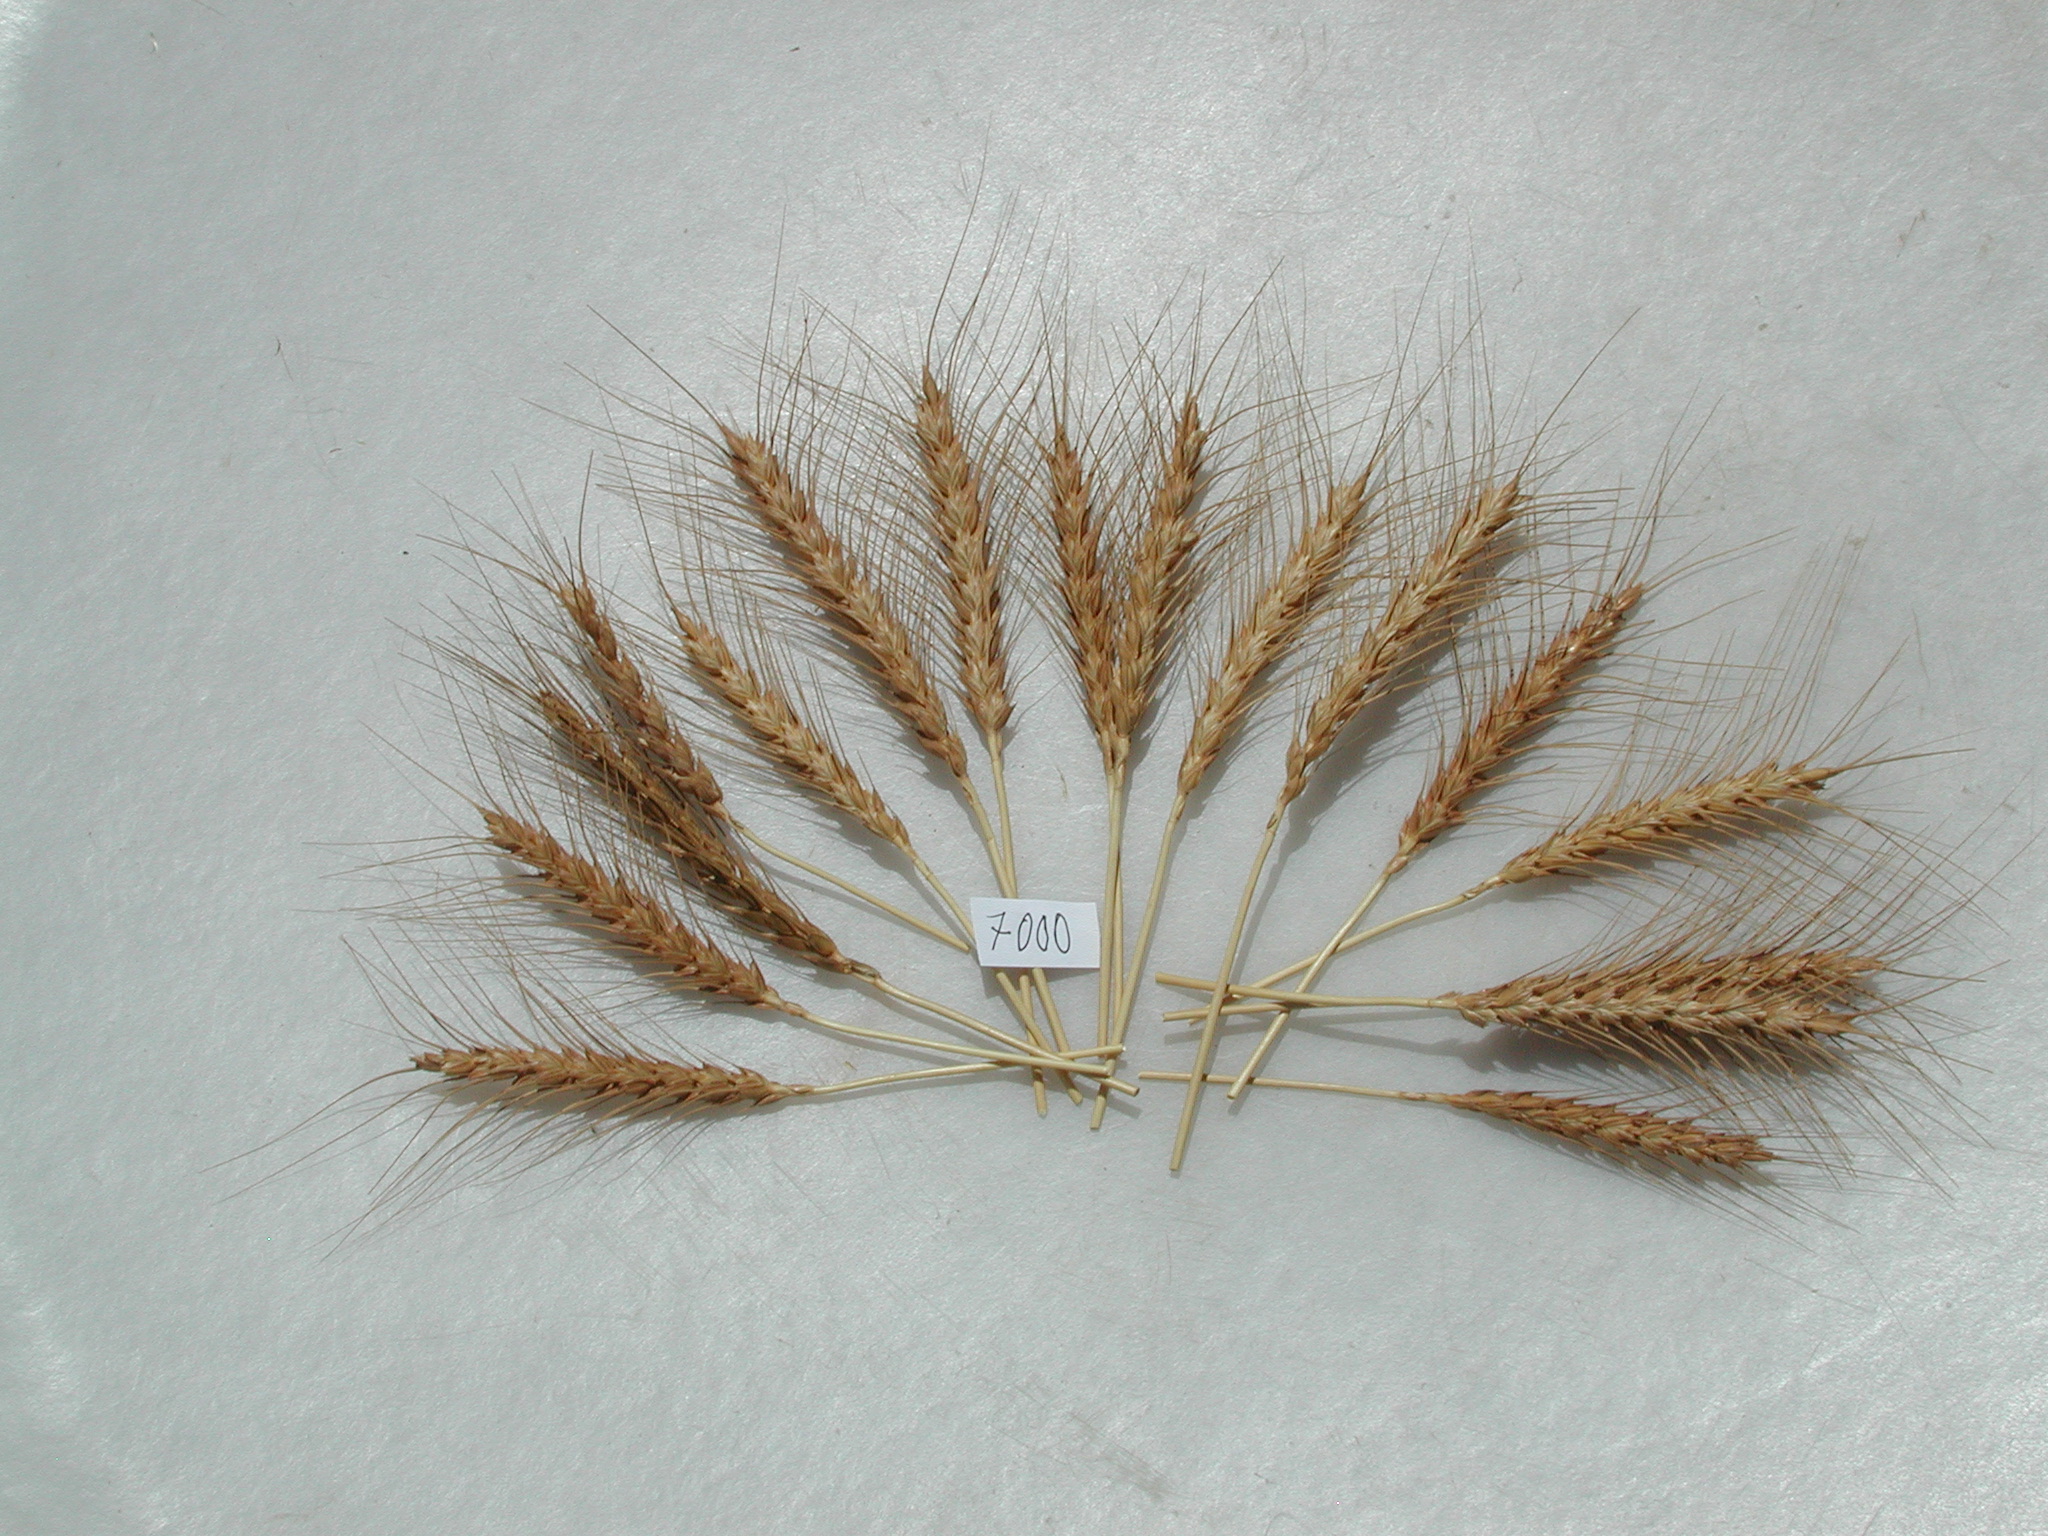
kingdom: Plantae
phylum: Tracheophyta
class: Liliopsida
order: Poales
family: Poaceae
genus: Triticum
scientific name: Triticum aestivum
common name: Wheat
